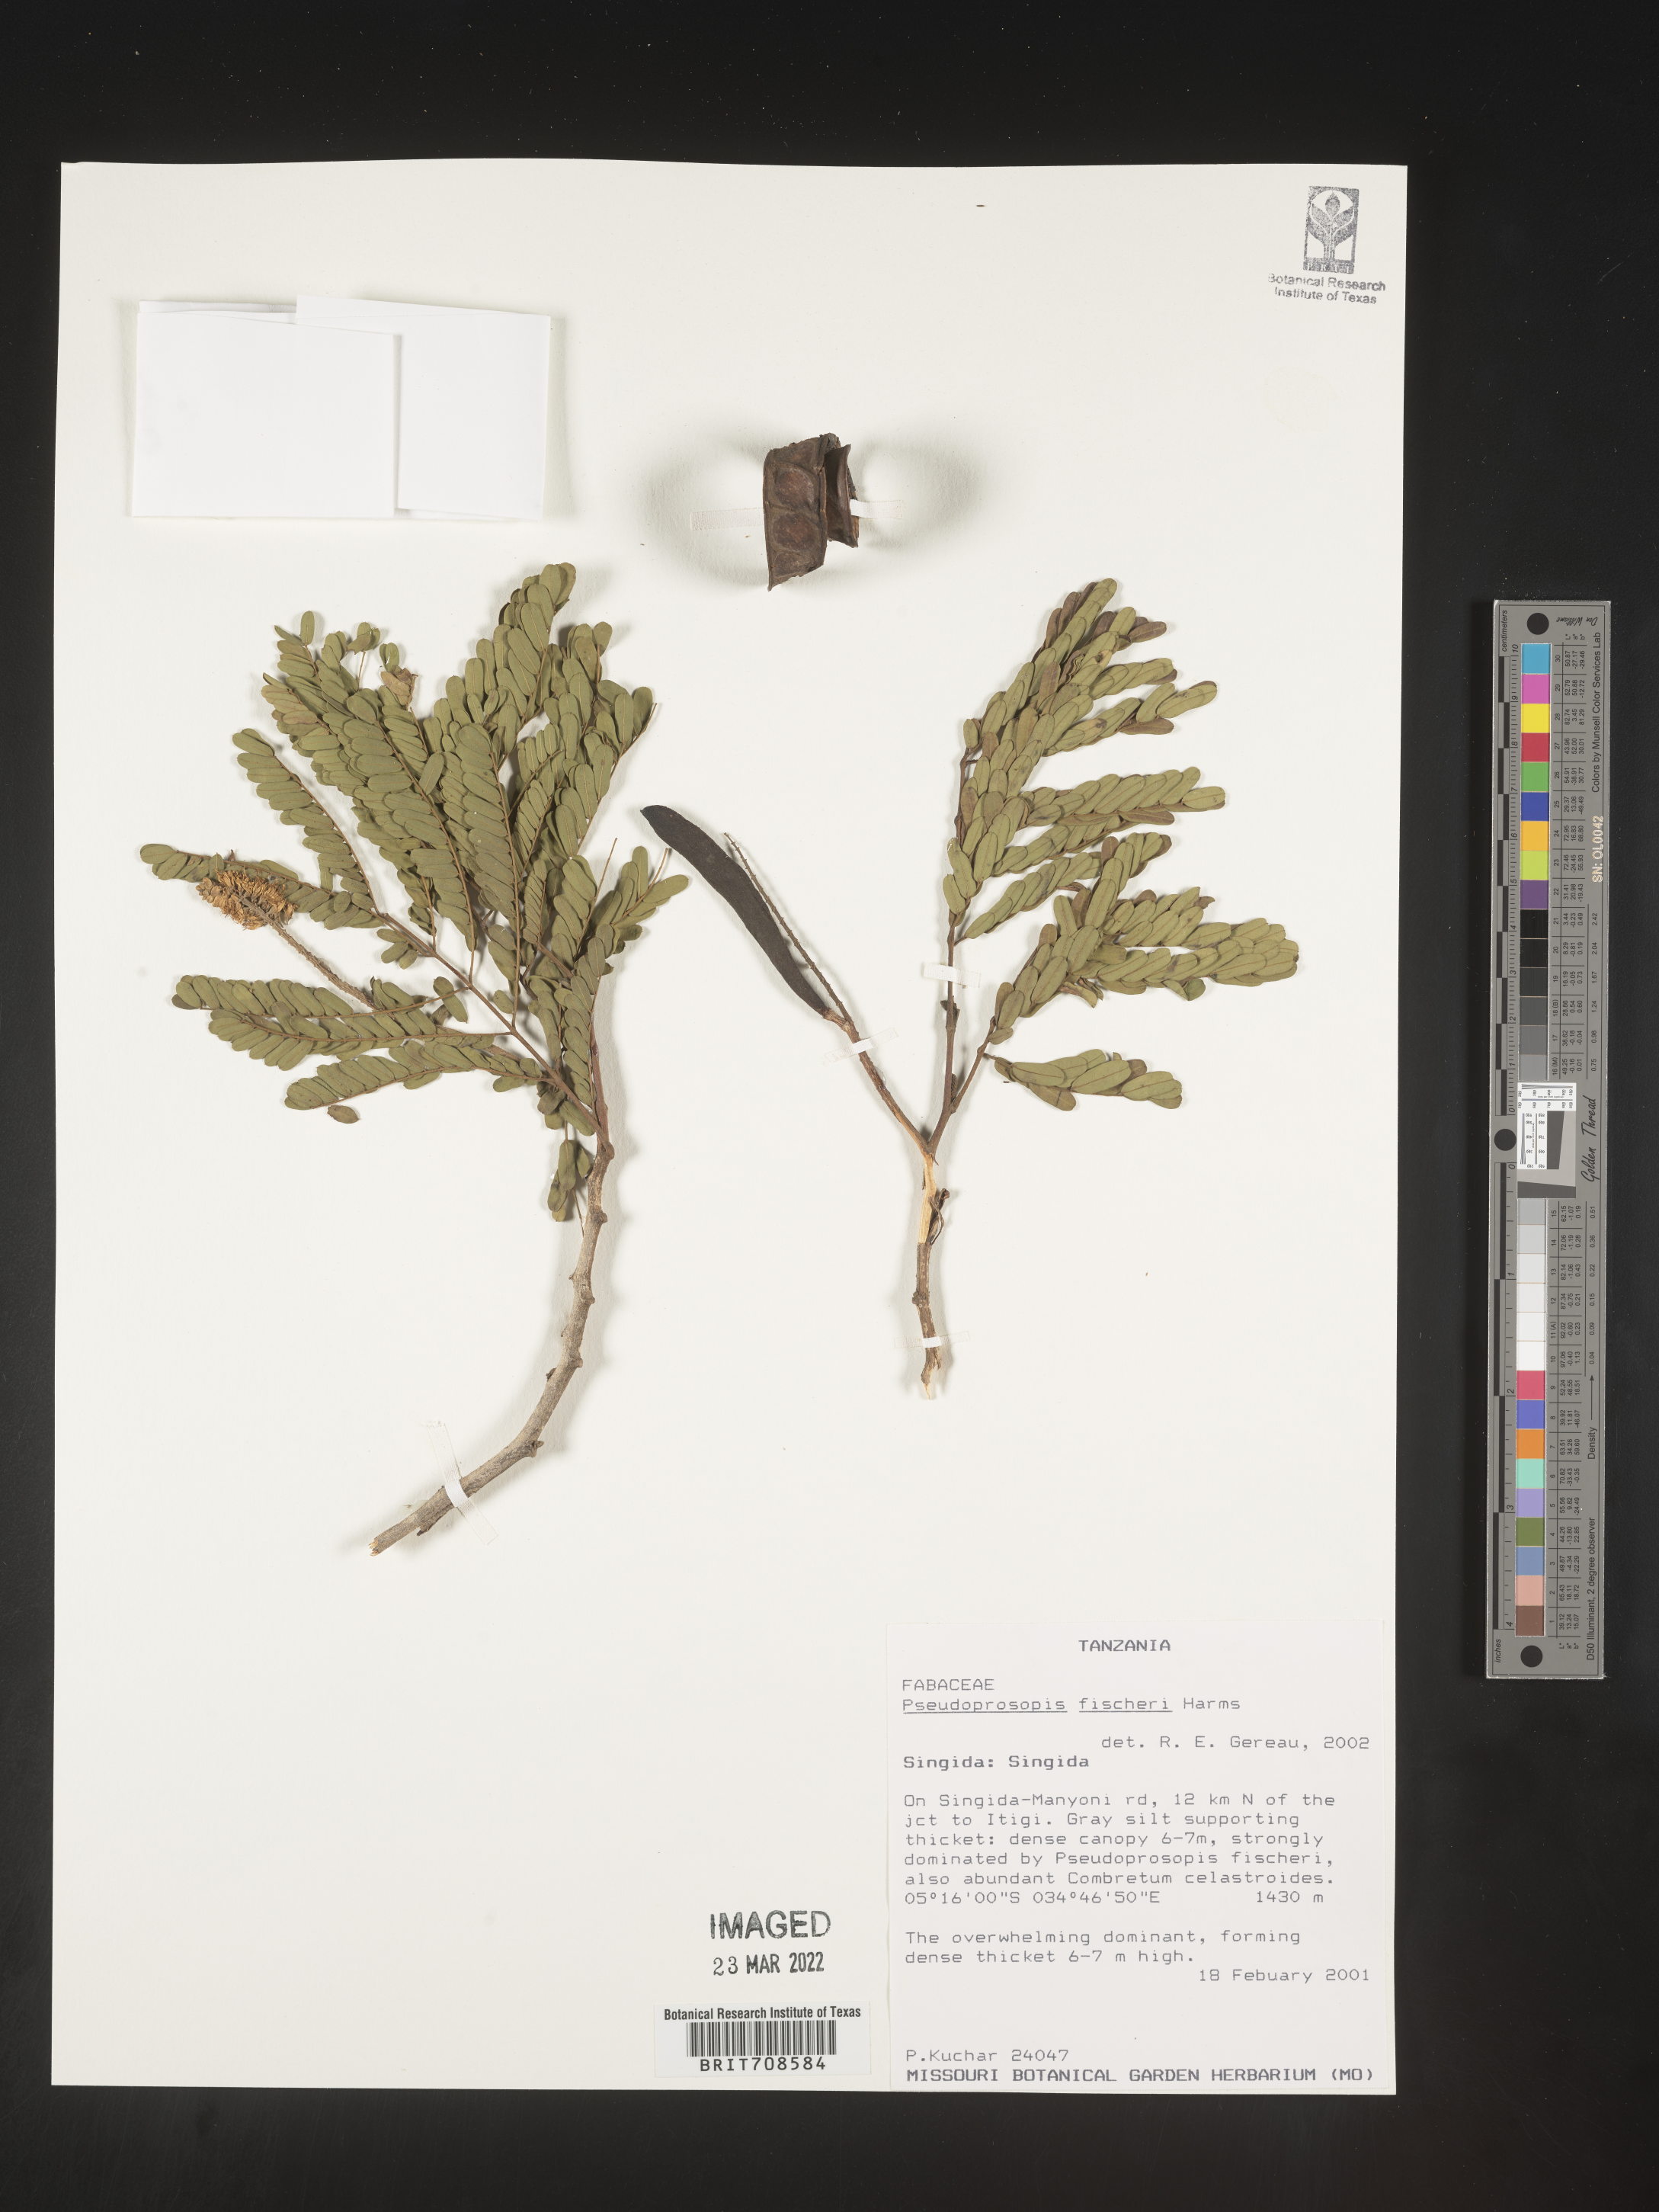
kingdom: Plantae
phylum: Tracheophyta
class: Magnoliopsida
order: Fabales
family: Fabaceae
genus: Pseudoprosopis
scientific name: Pseudoprosopis
